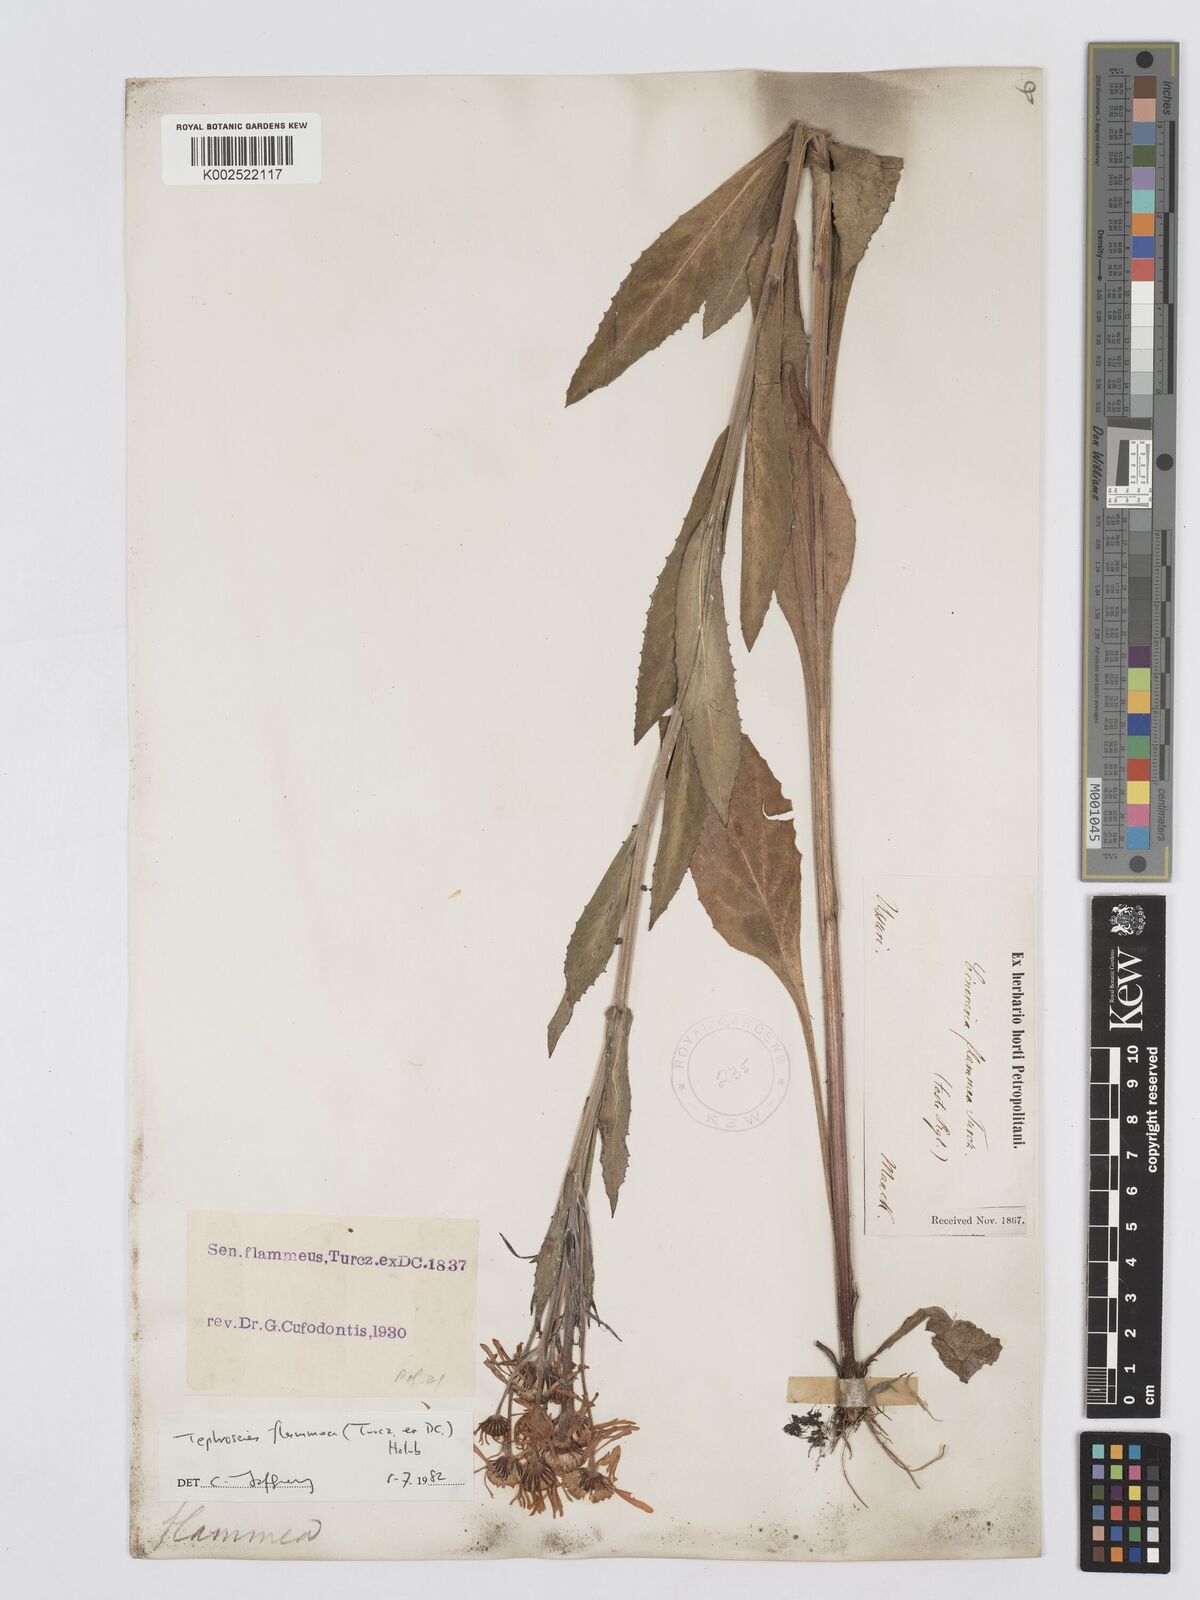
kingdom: Plantae
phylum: Tracheophyta
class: Magnoliopsida
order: Asterales
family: Asteraceae
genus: Tephroseris
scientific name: Tephroseris flammea
